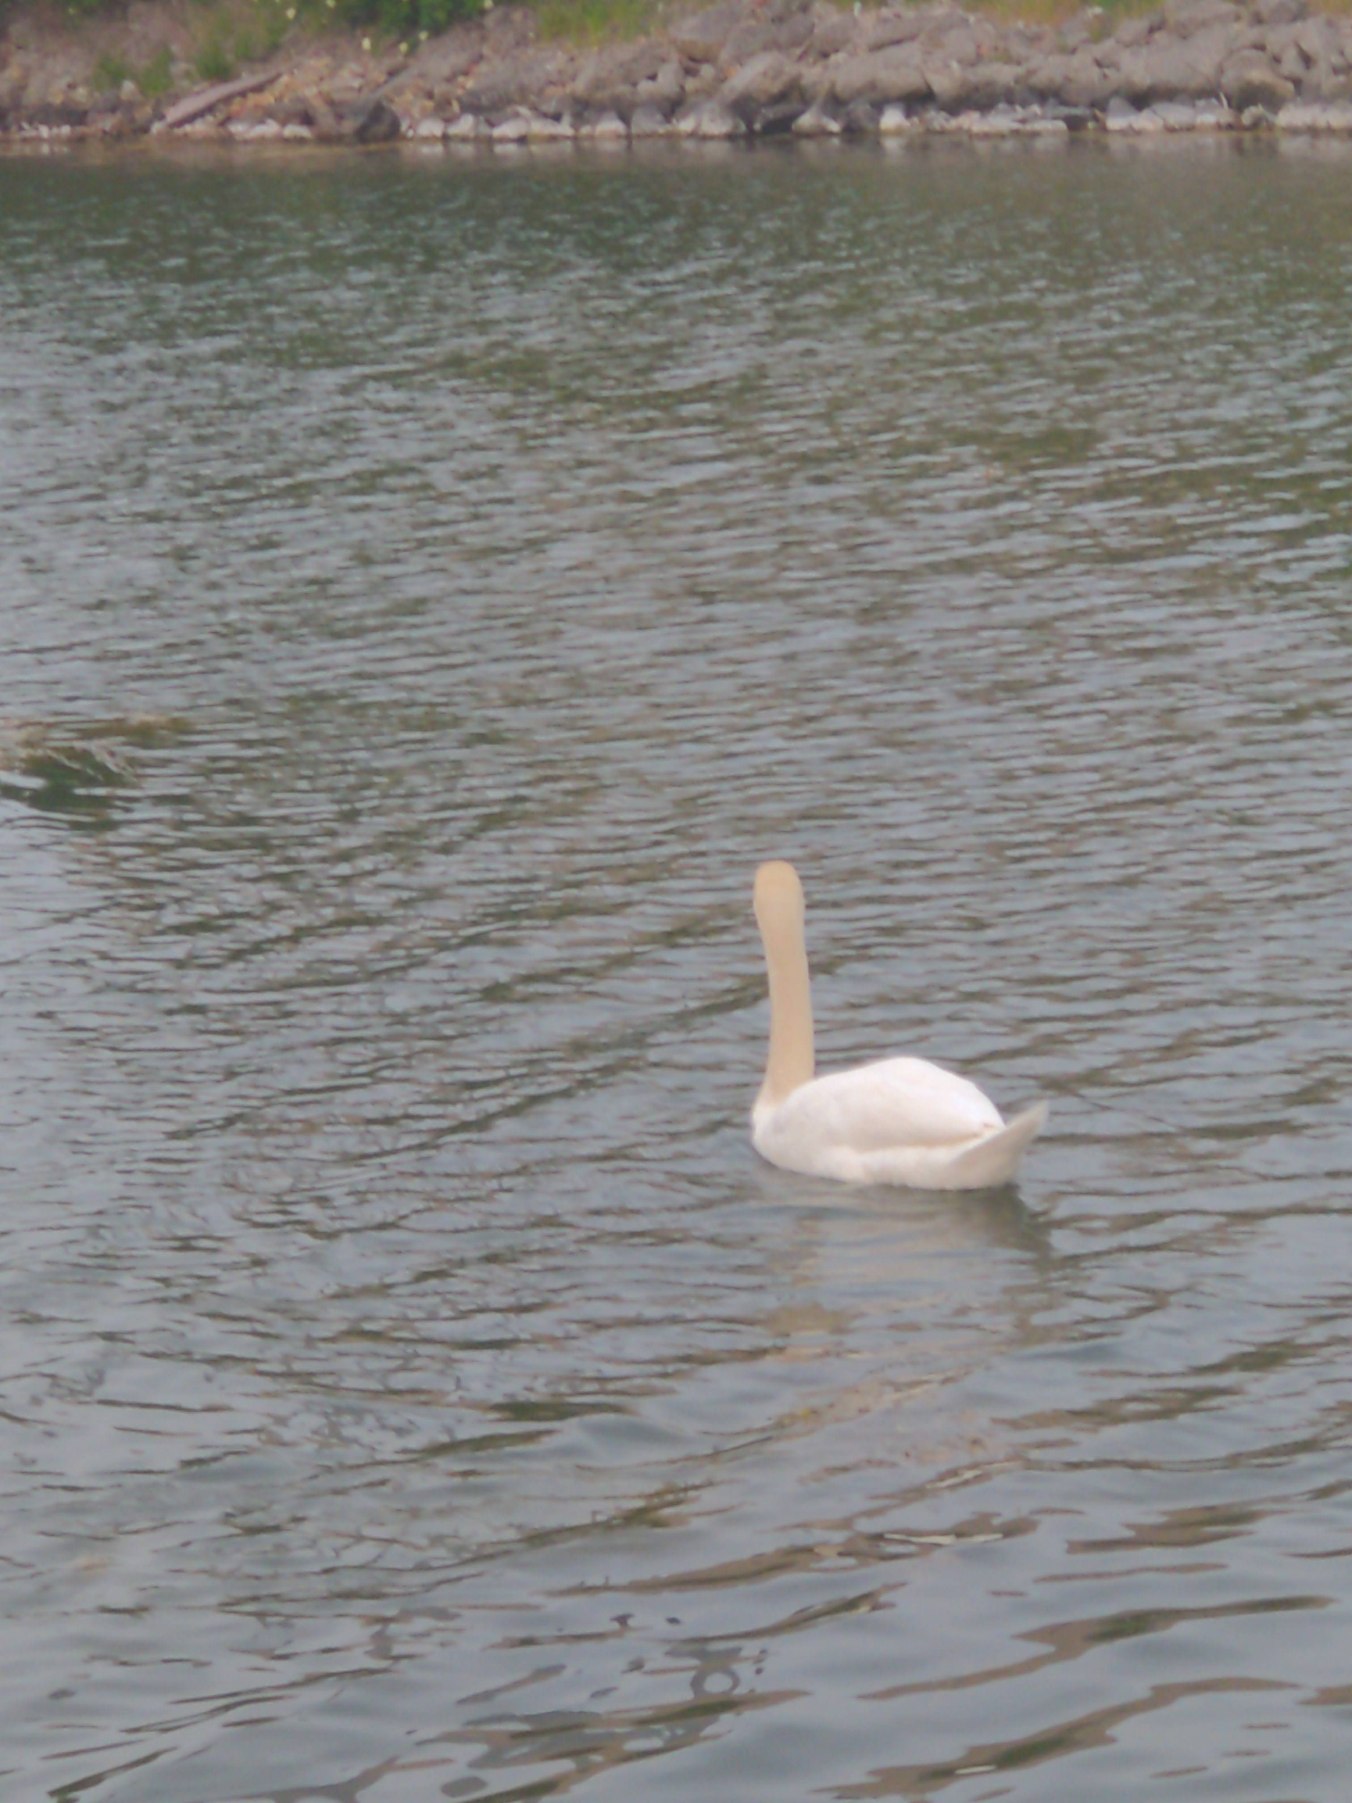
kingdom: Animalia
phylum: Chordata
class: Aves
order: Anseriformes
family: Anatidae
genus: Cygnus
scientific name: Cygnus olor
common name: Knopsvane
